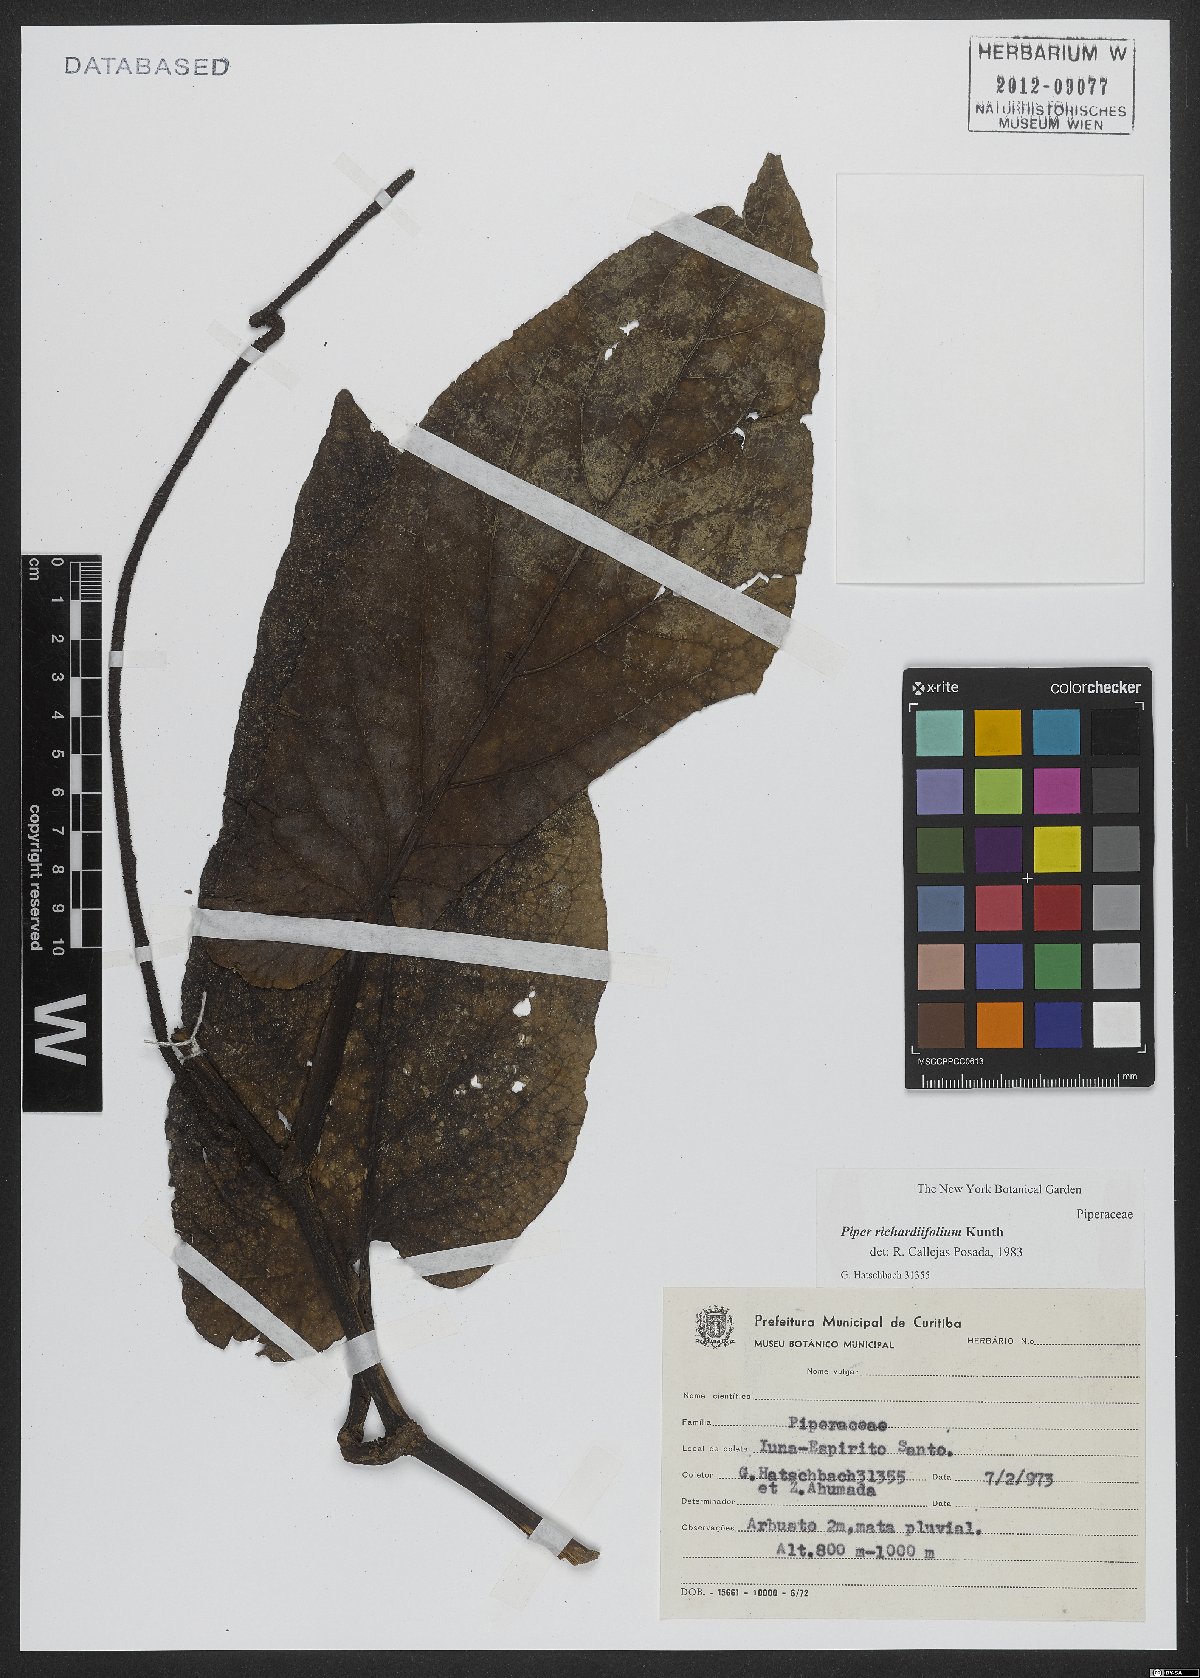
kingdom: Plantae
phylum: Tracheophyta
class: Magnoliopsida
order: Piperales
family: Piperaceae
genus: Piper
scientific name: Piper richardiifolium
